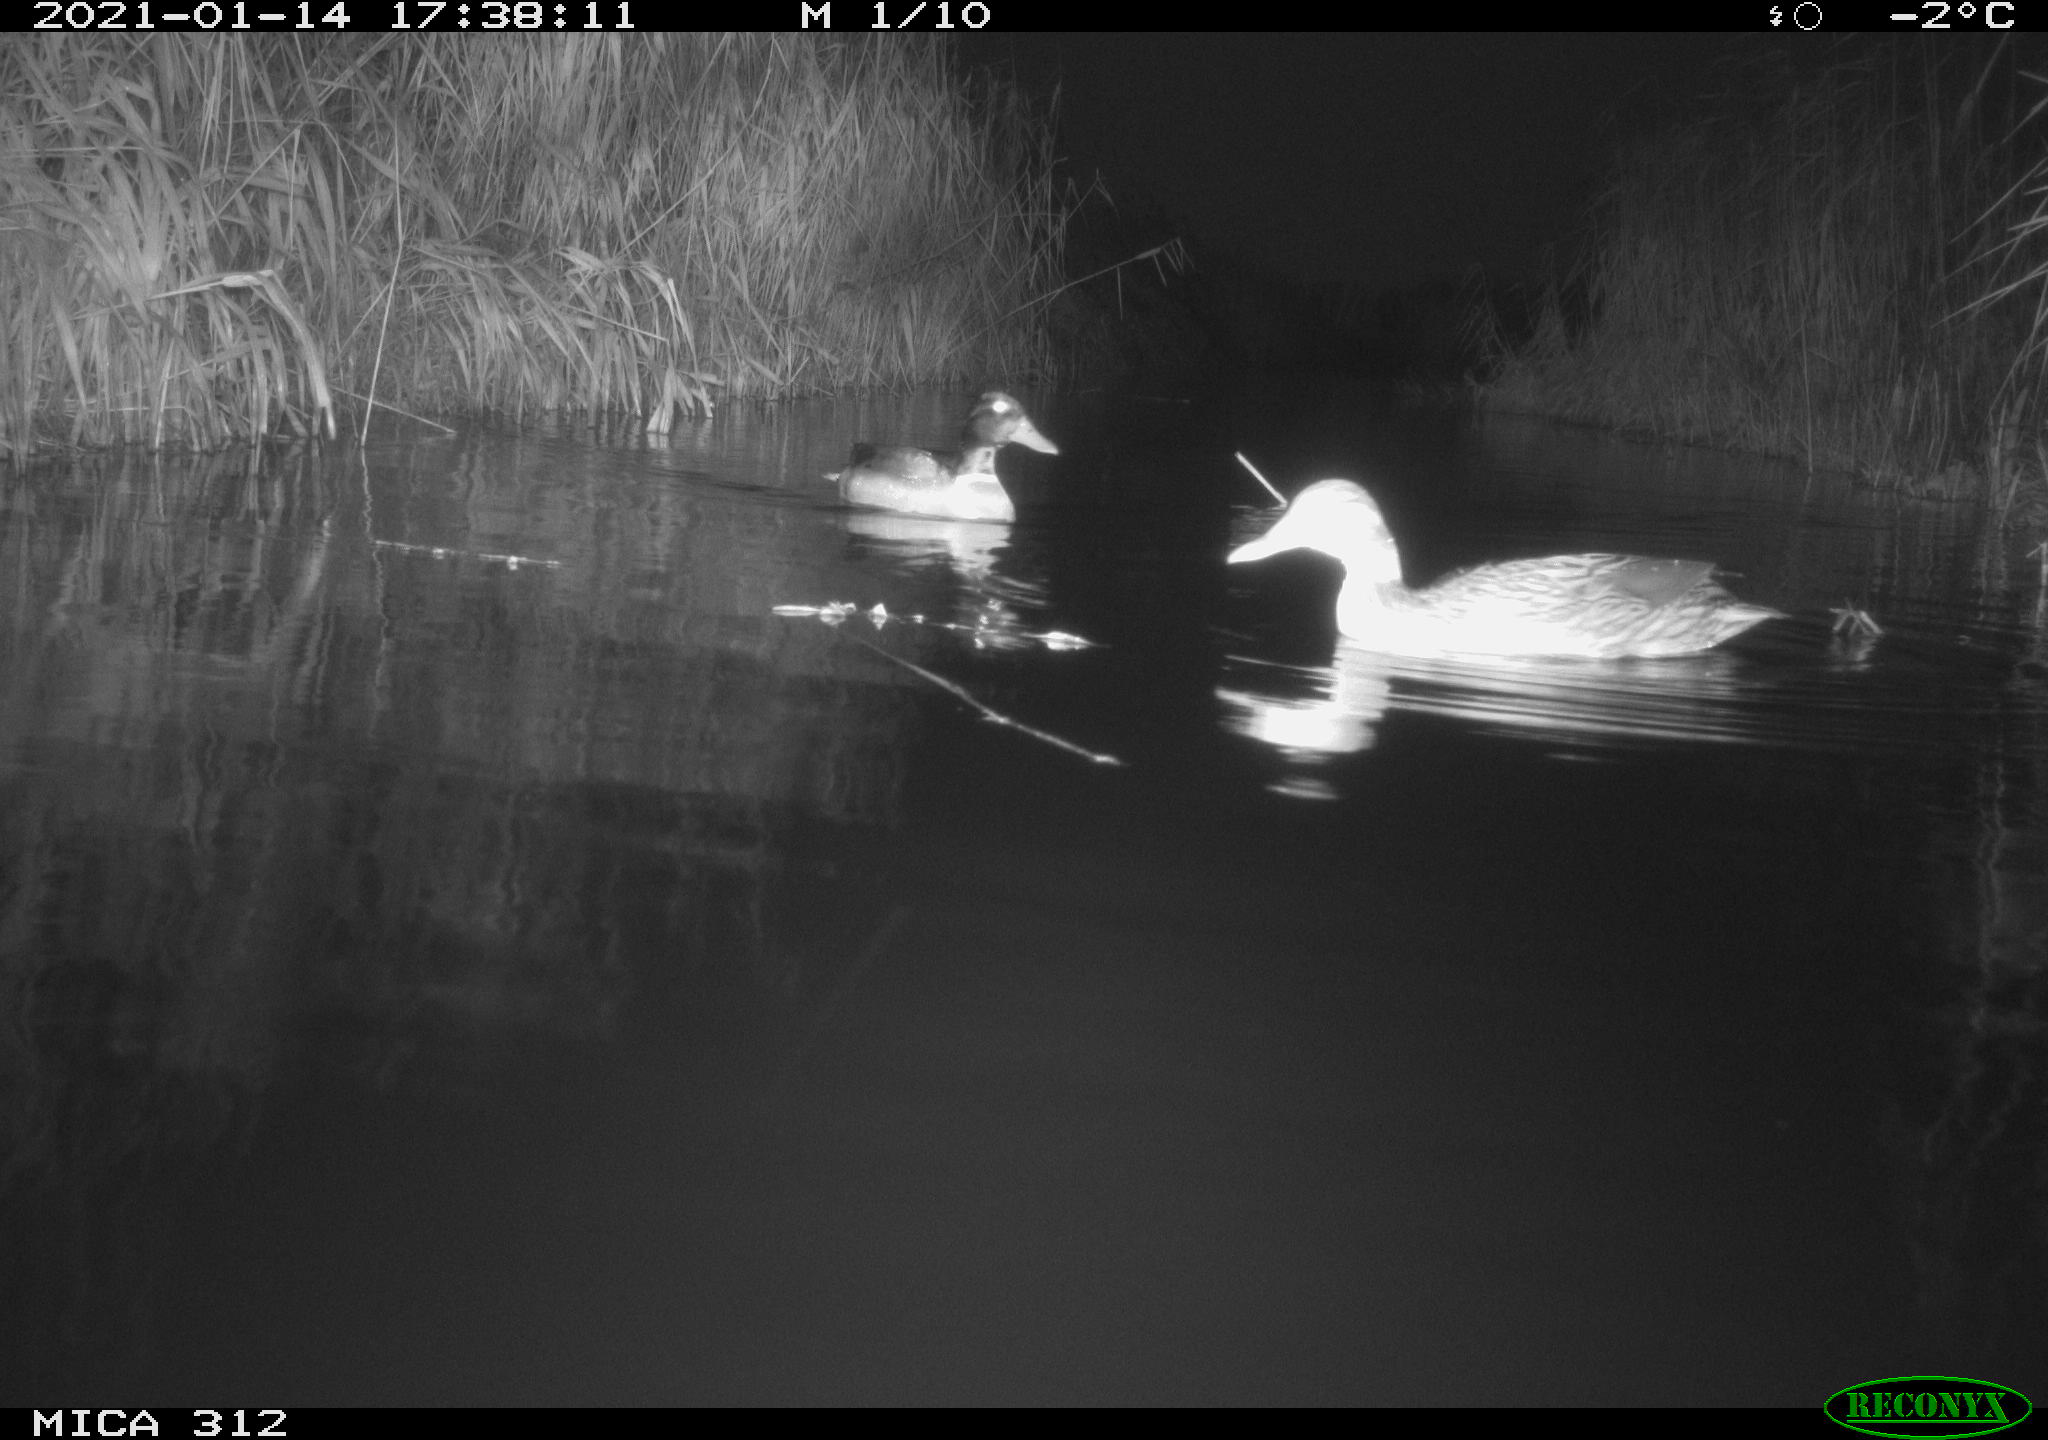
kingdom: Animalia
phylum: Chordata
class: Aves
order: Anseriformes
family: Anatidae
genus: Anas
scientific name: Anas platyrhynchos
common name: Mallard
